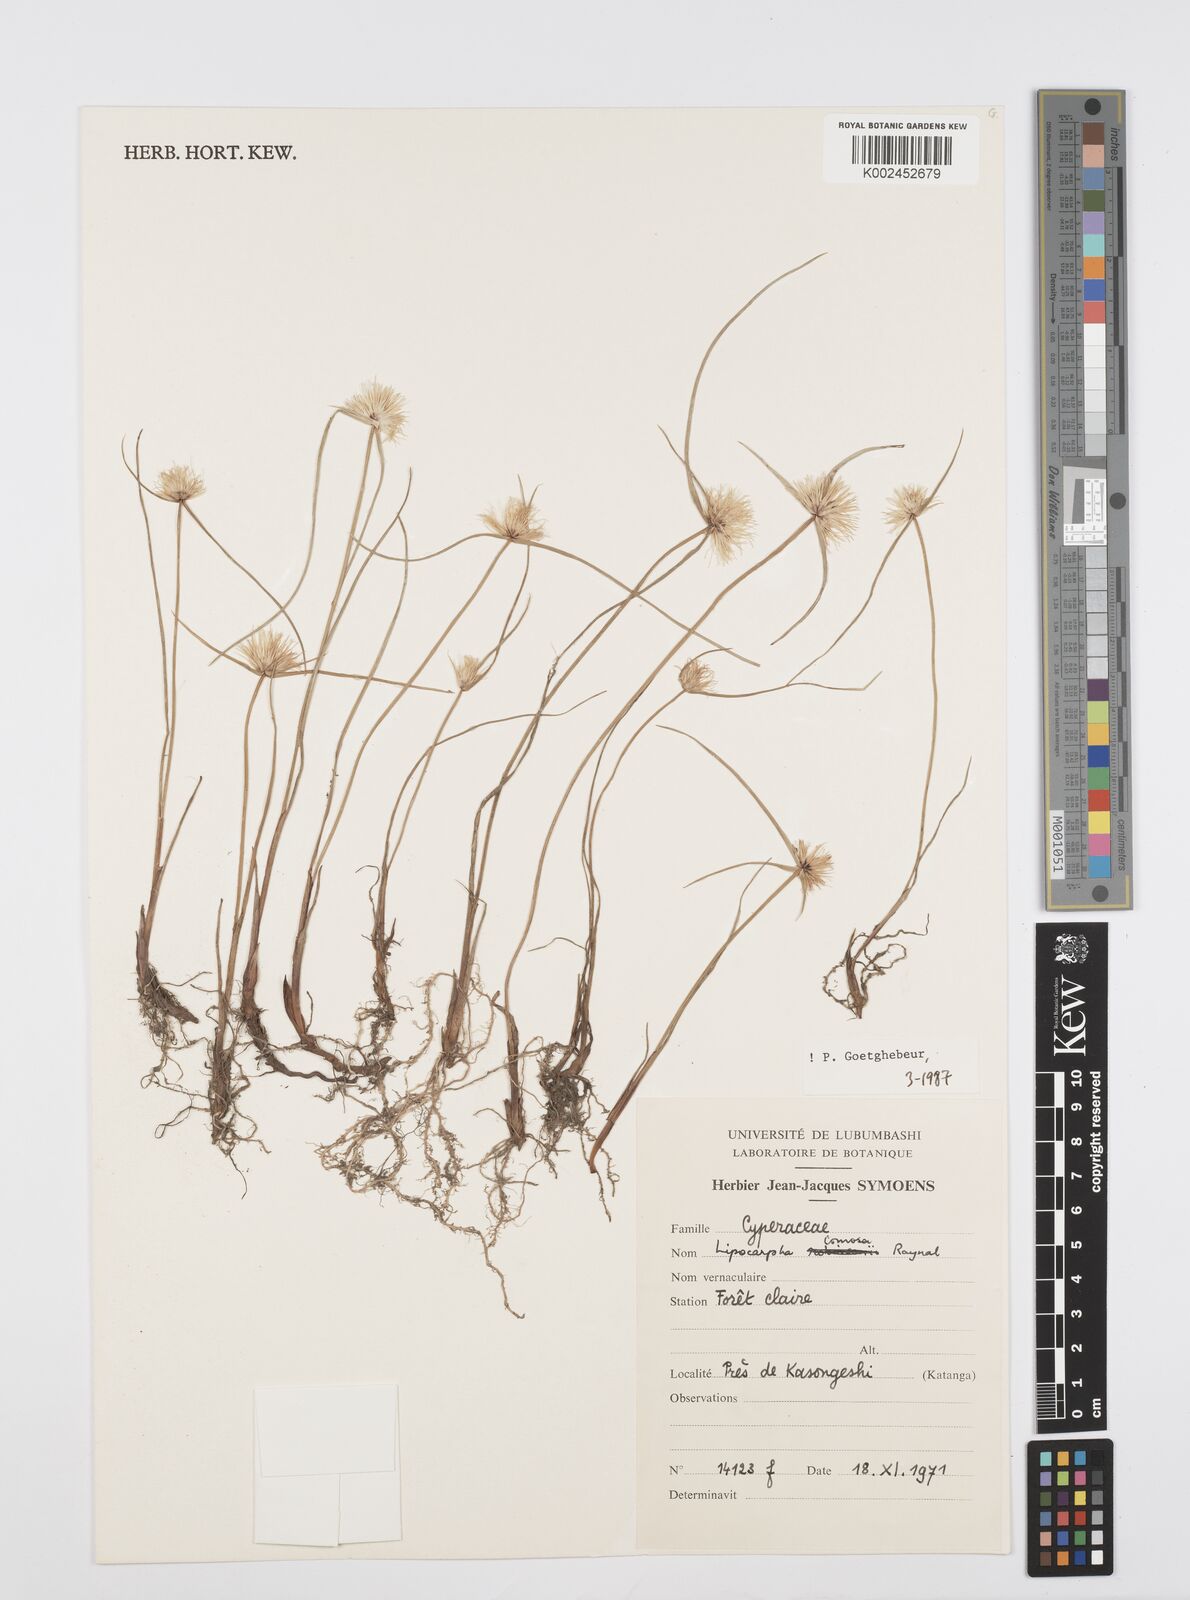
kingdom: Plantae
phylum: Tracheophyta
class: Liliopsida
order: Poales
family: Cyperaceae
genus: Cyperus
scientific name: Cyperus lipocomosus
